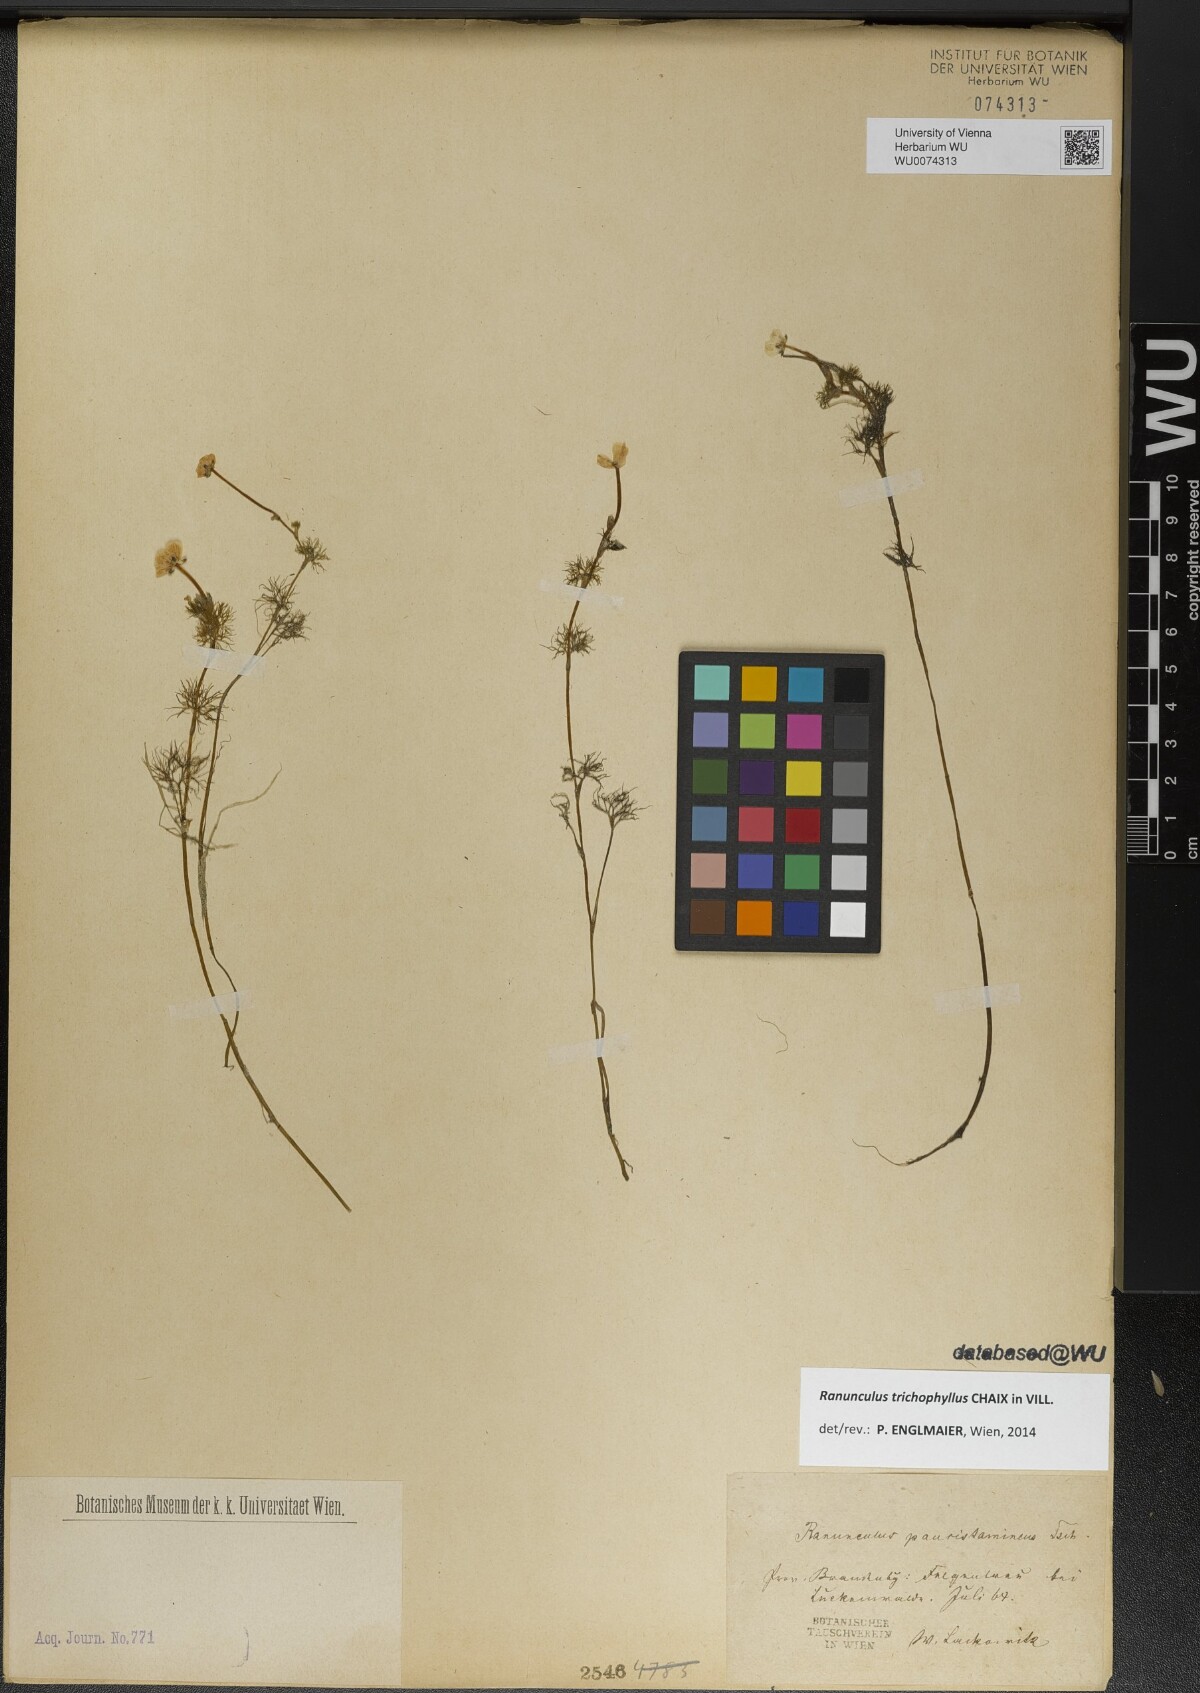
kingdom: Plantae
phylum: Tracheophyta
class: Magnoliopsida
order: Ranunculales
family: Ranunculaceae
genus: Ranunculus
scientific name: Ranunculus trichophyllus
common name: Thread-leaved water-crowfoot
